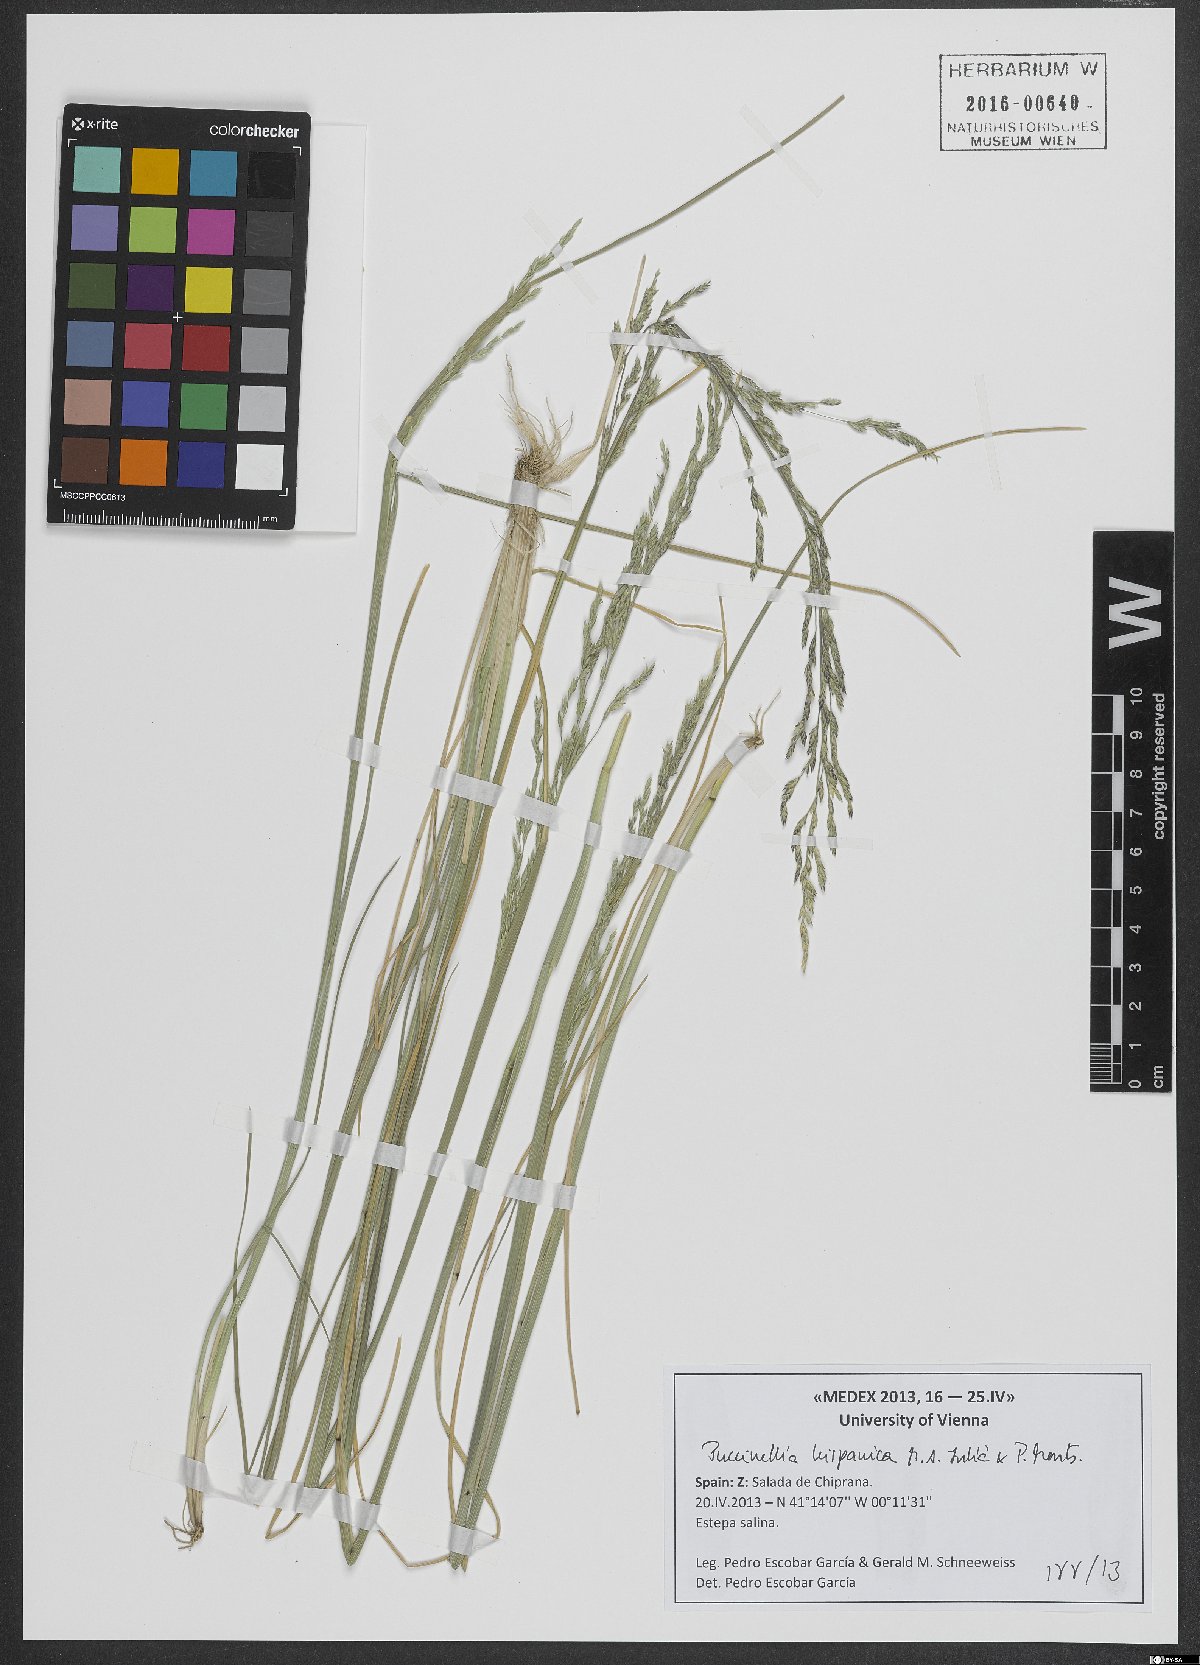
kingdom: Plantae
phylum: Tracheophyta
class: Liliopsida
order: Poales
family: Poaceae
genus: Puccinellia
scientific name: Puccinellia hispanica
